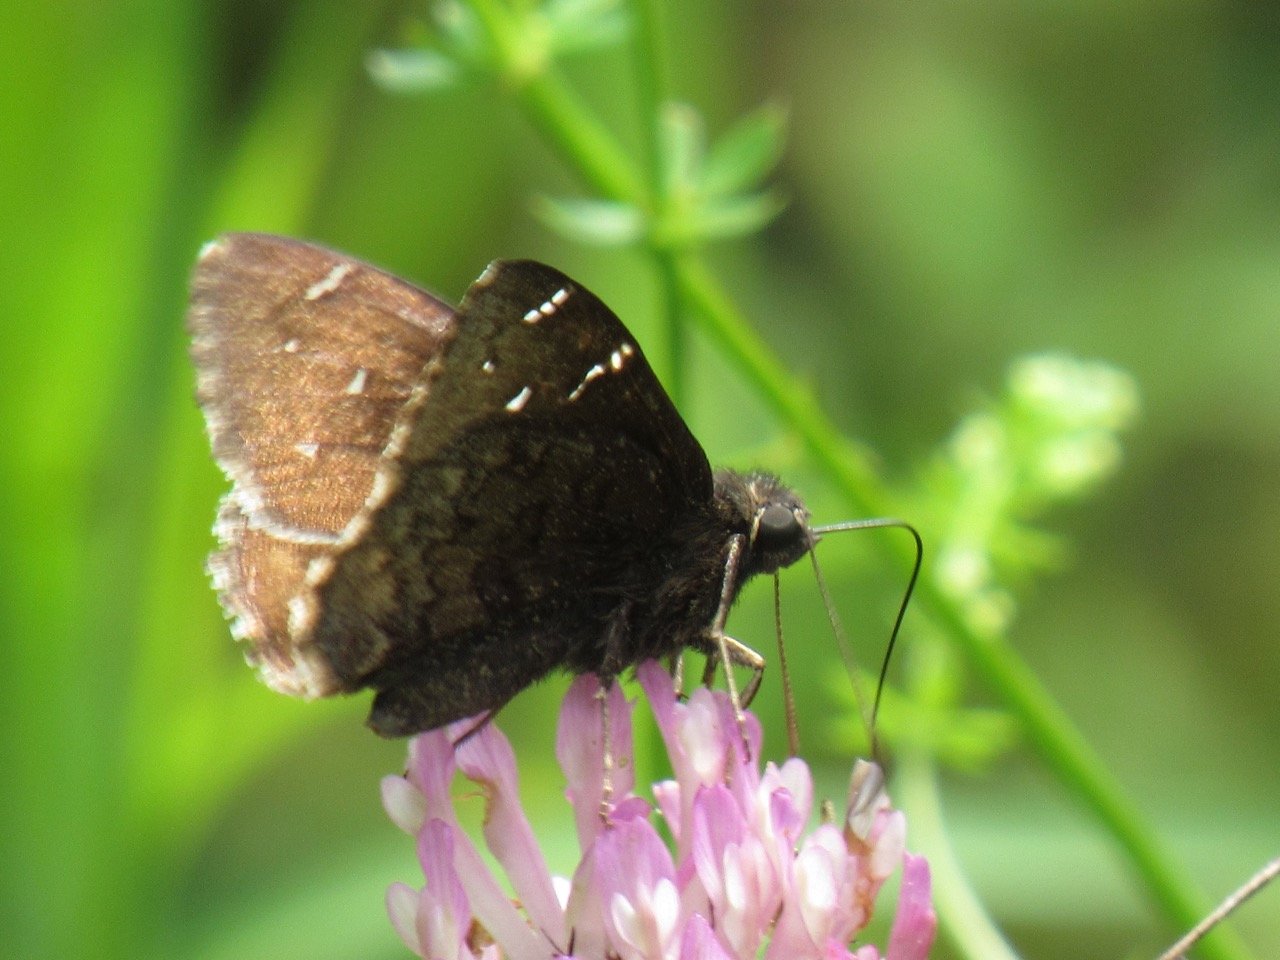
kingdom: Animalia
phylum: Arthropoda
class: Insecta
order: Lepidoptera
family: Hesperiidae
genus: Autochton
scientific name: Autochton
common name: Northern Cloudywing
